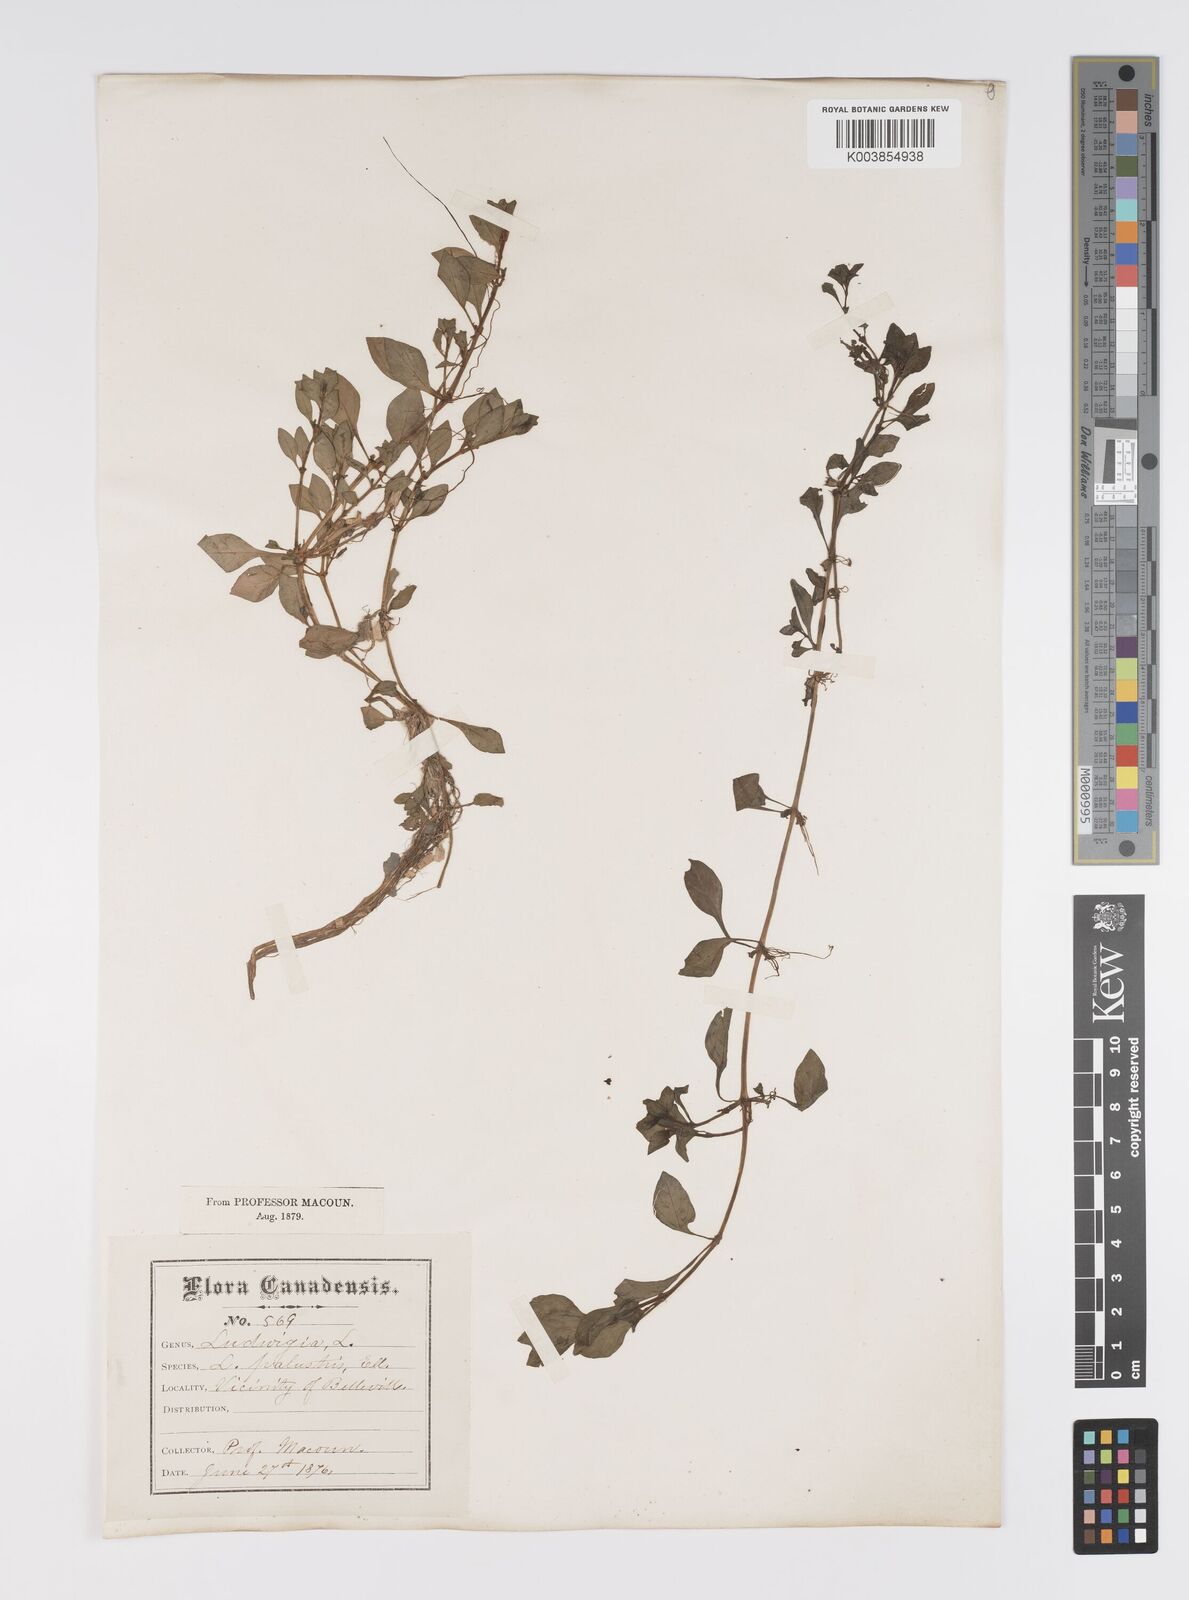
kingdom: Plantae
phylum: Tracheophyta
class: Magnoliopsida
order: Myrtales
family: Onagraceae
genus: Ludwigia
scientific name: Ludwigia palustris
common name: Hampshire-purslane
